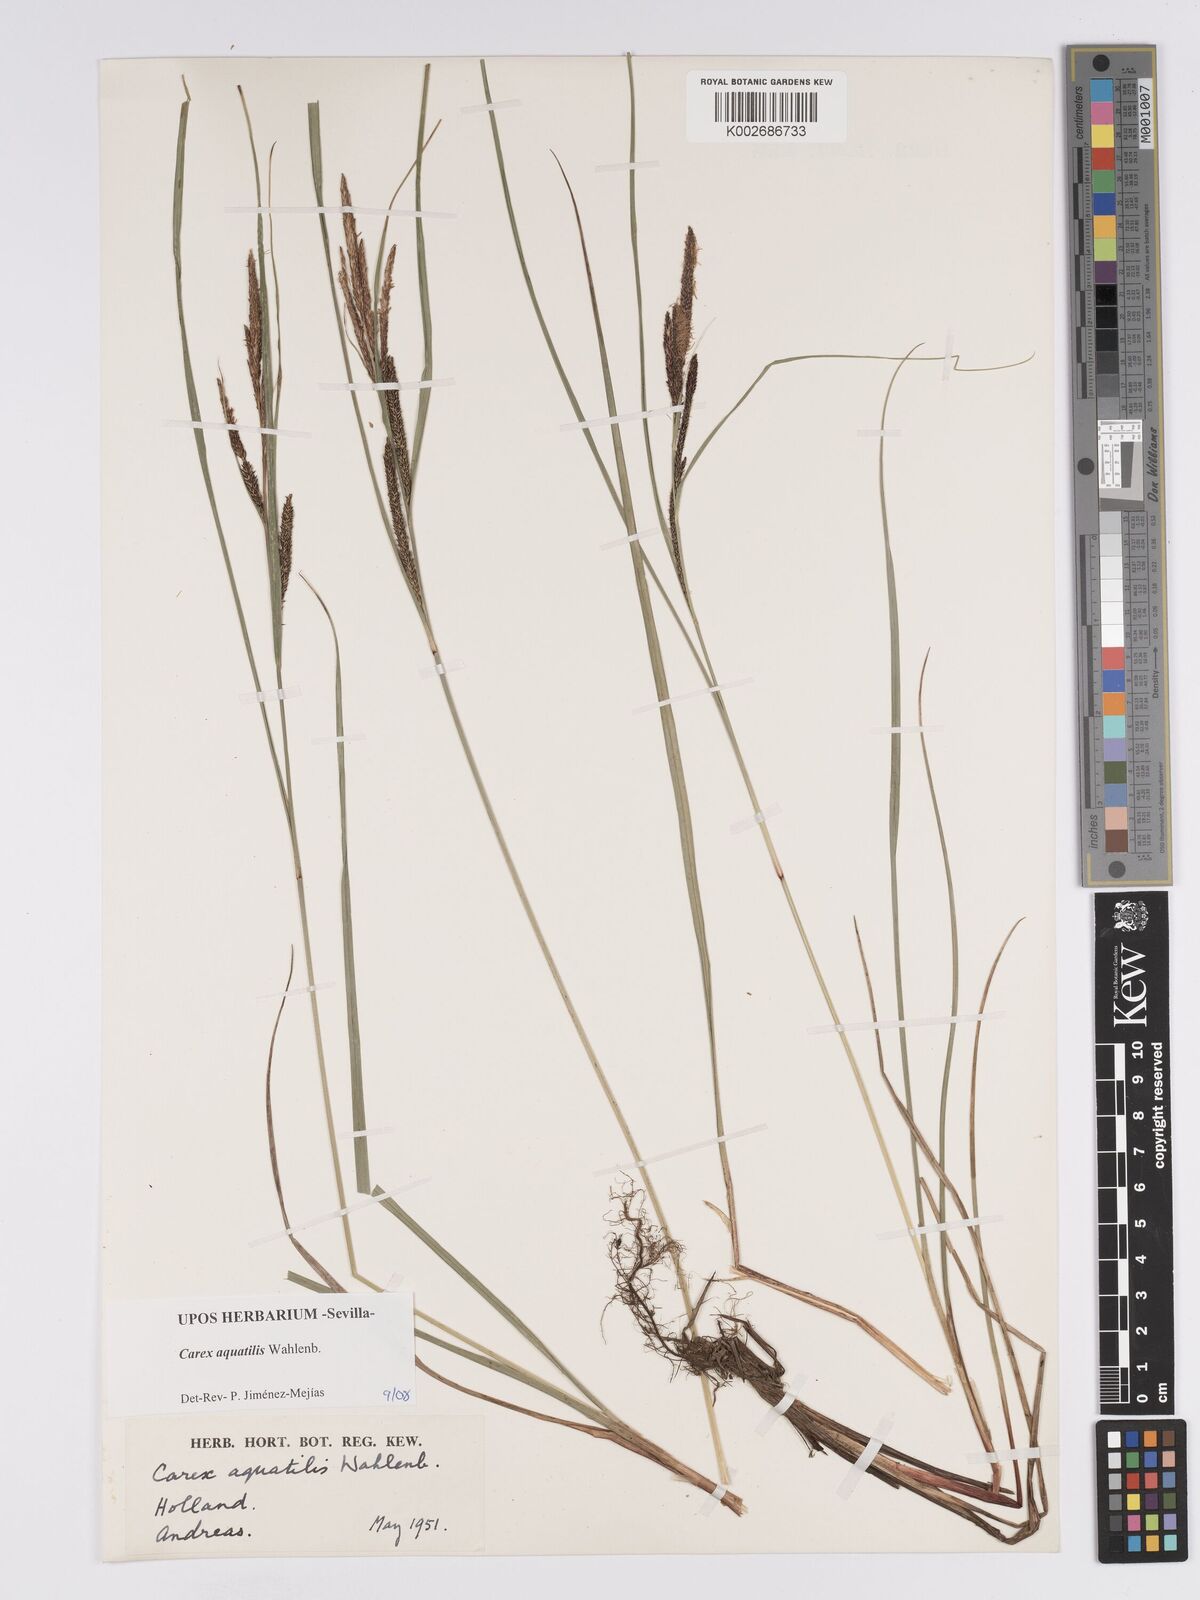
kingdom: Plantae
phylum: Tracheophyta
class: Liliopsida
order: Poales
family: Cyperaceae
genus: Carex
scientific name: Carex aquatilis
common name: Water sedge
